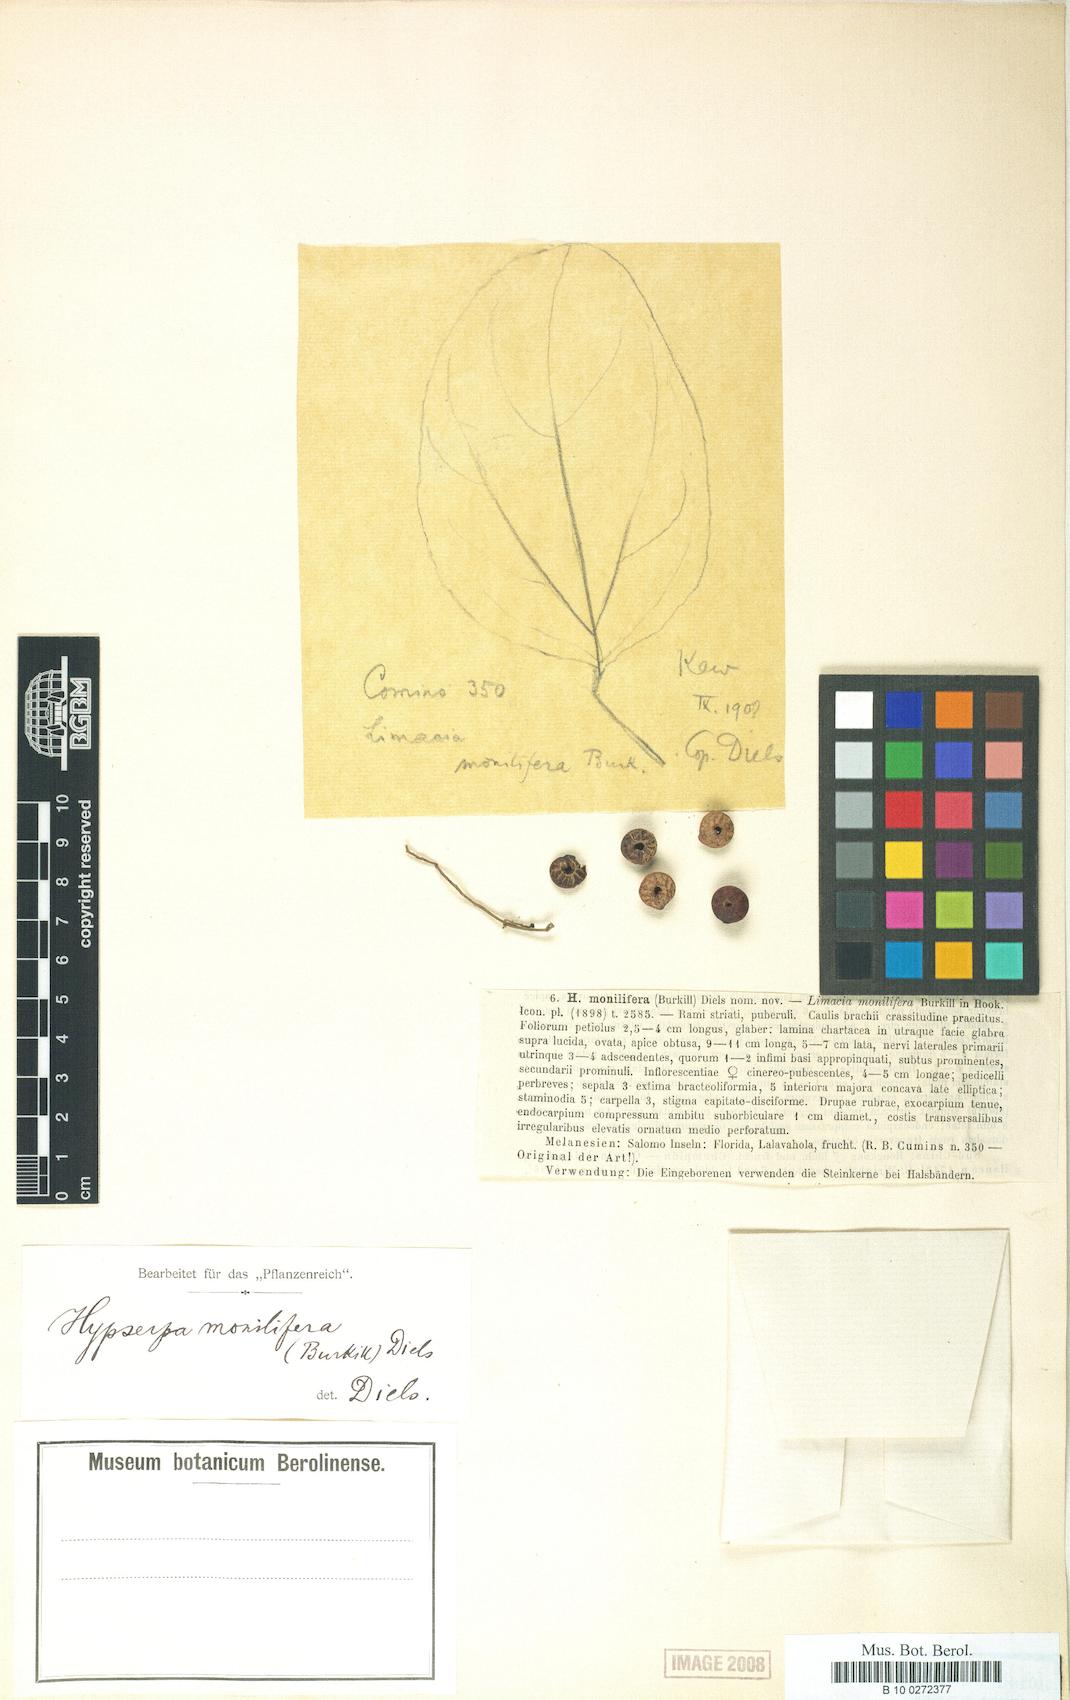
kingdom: Plantae
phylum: Tracheophyta
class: Magnoliopsida
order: Ranunculales
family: Menispermaceae
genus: Hypserpa
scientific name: Hypserpa polyandra
